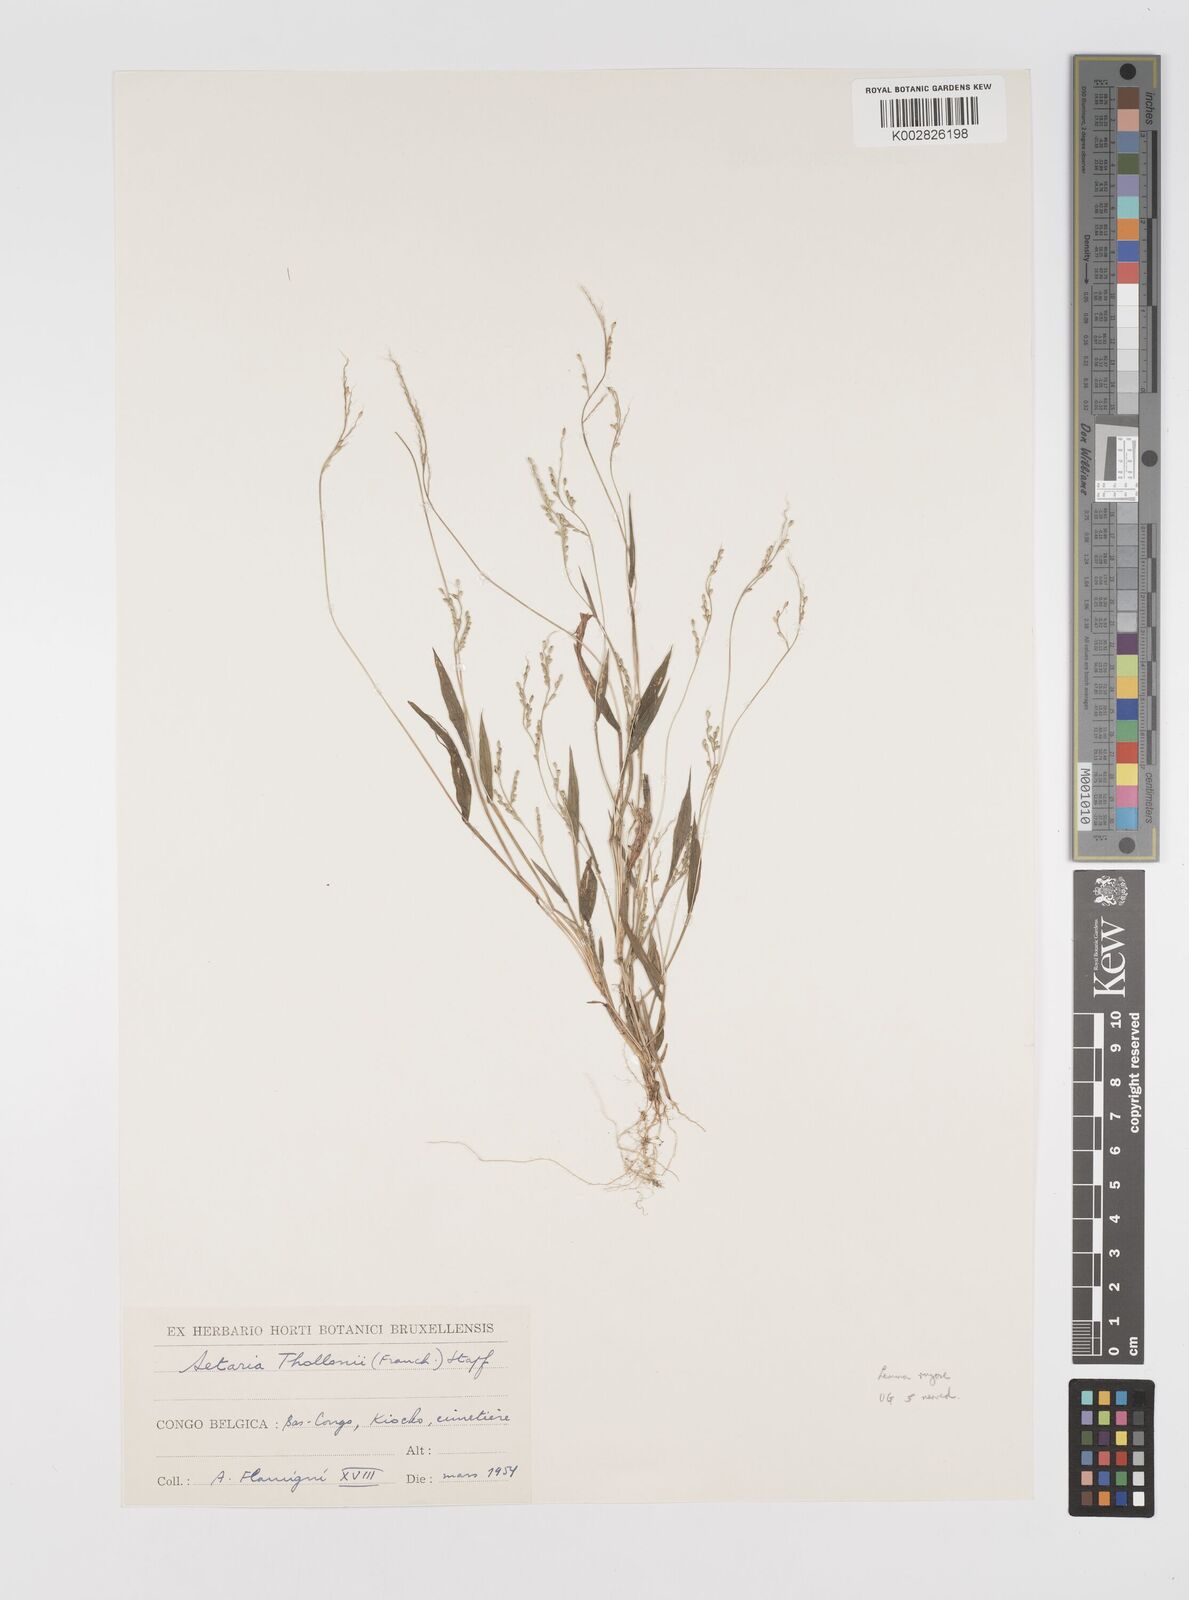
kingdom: Plantae
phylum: Tracheophyta
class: Liliopsida
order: Poales
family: Poaceae
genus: Setaria
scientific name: Setaria homonyma
